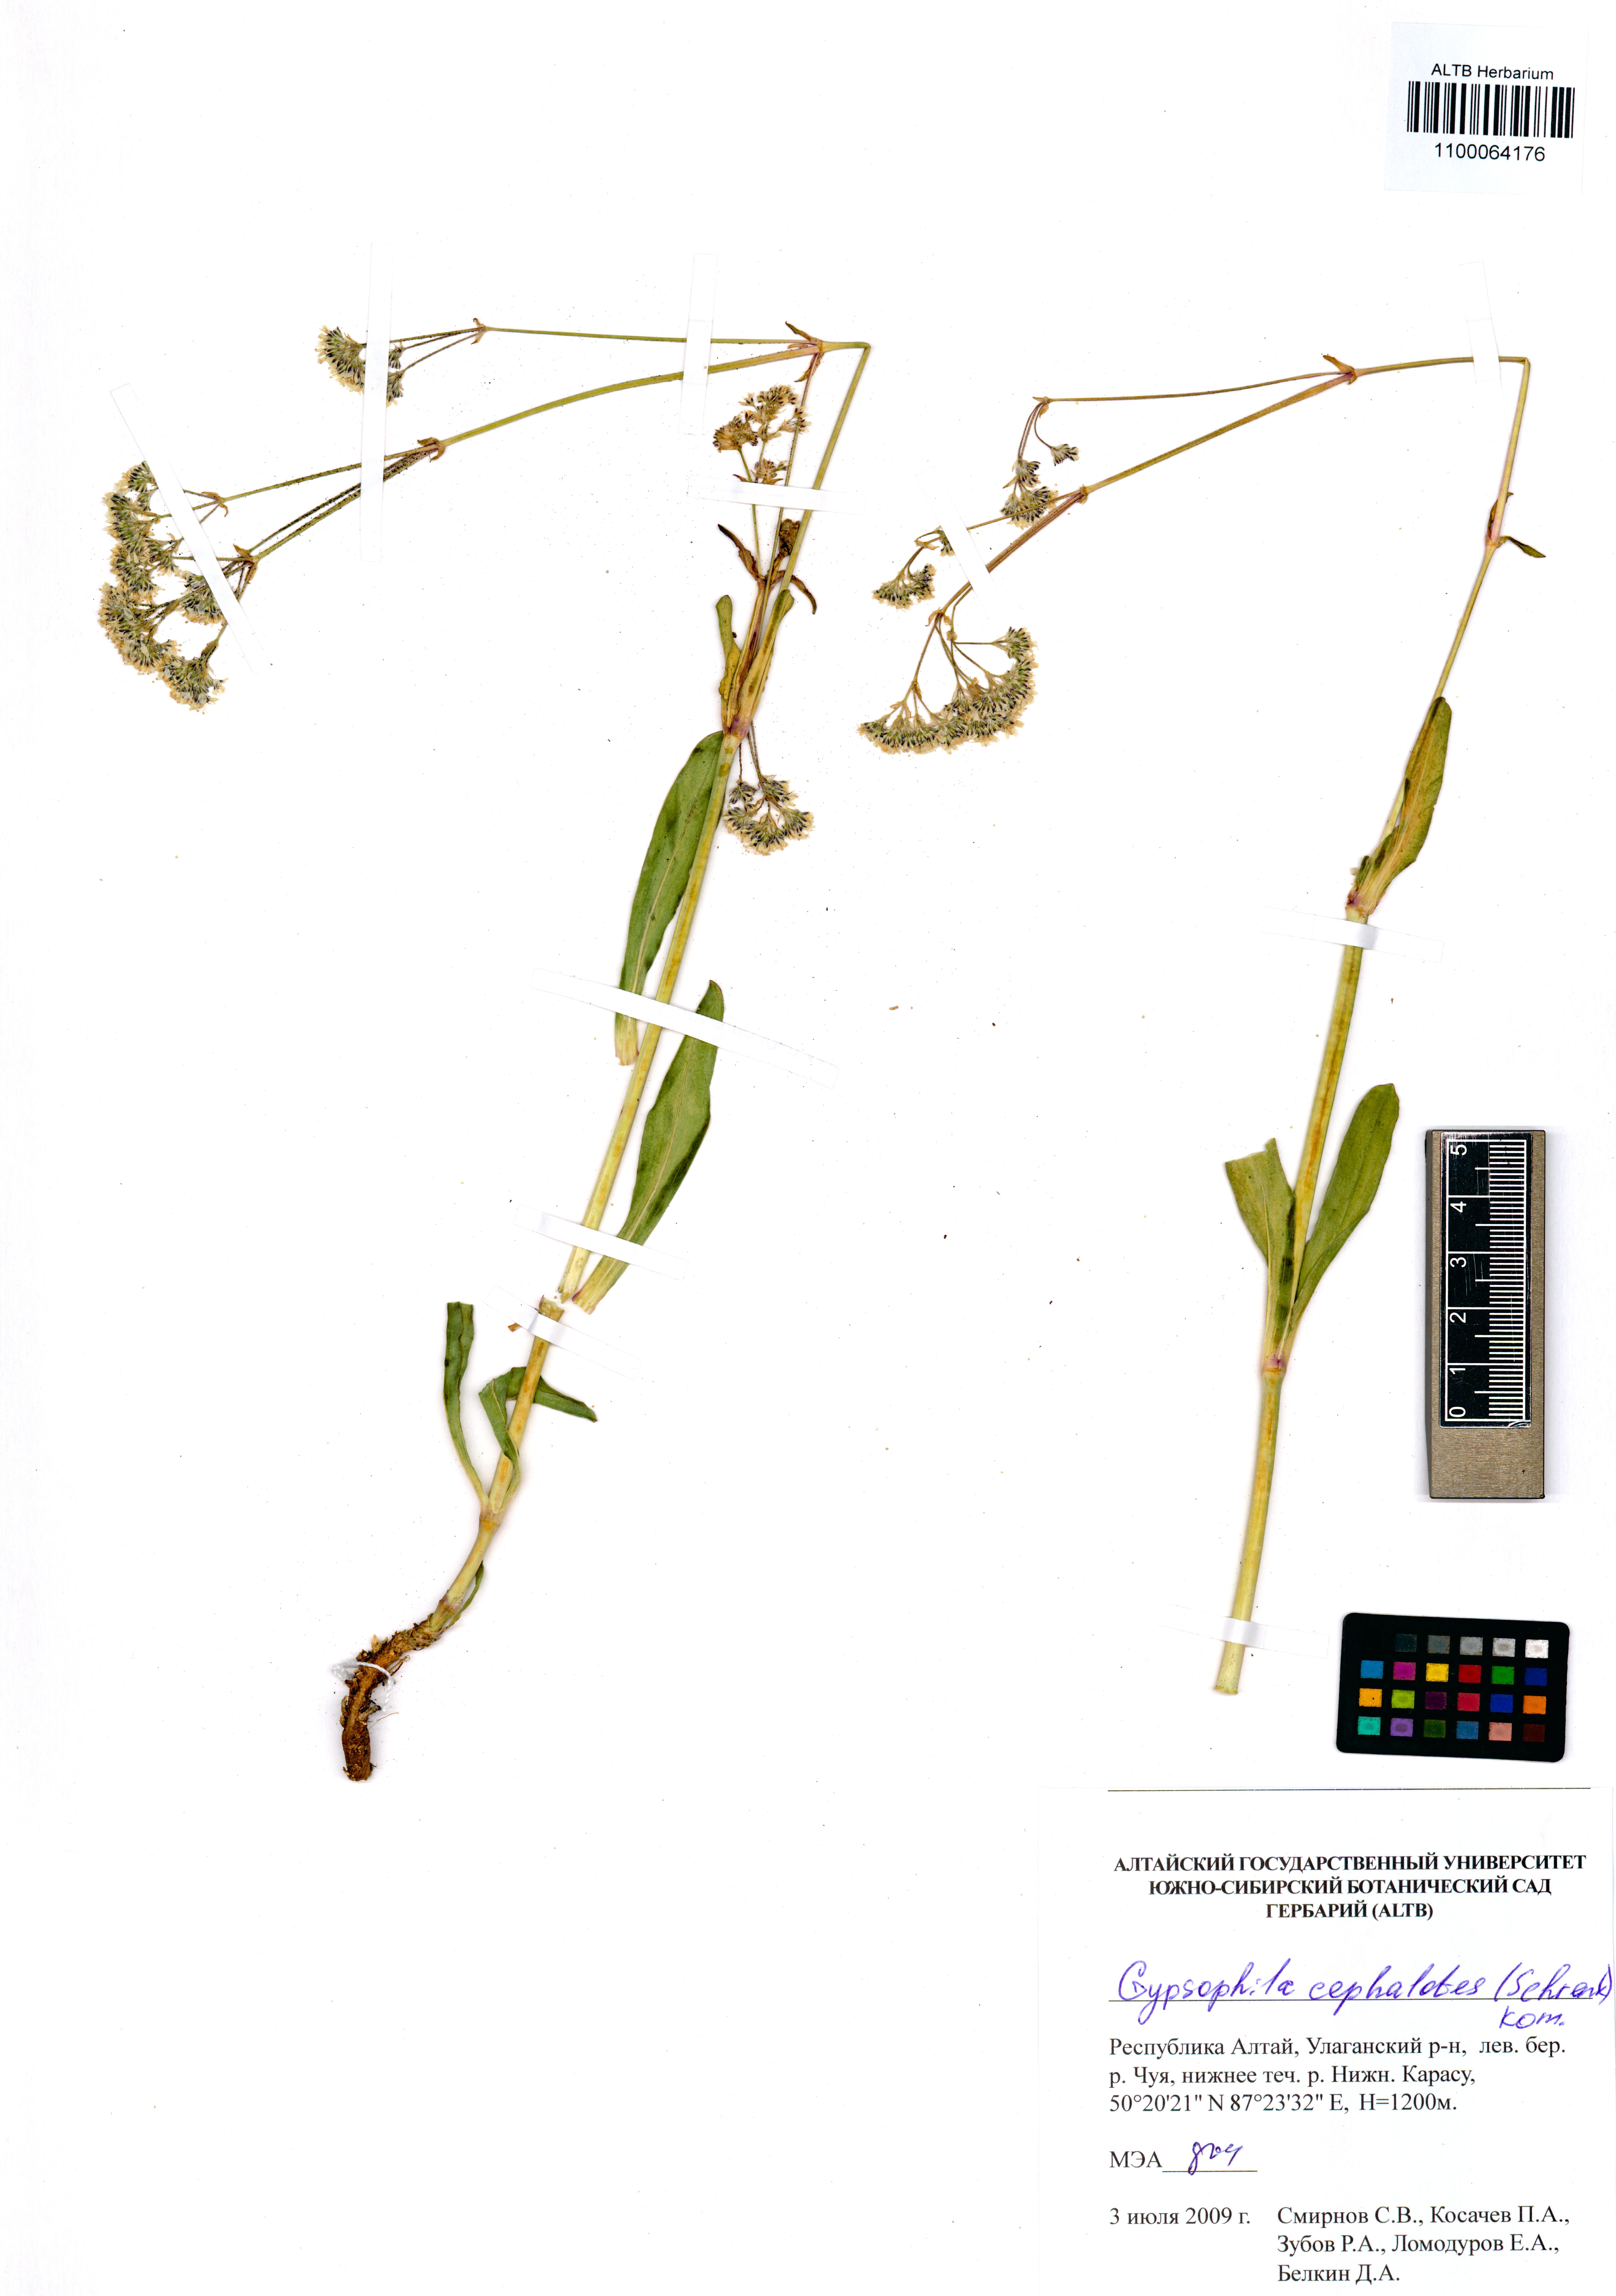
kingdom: Plantae
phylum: Tracheophyta
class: Magnoliopsida
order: Caryophyllales
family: Caryophyllaceae
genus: Gypsophila
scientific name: Gypsophila cephalotes
